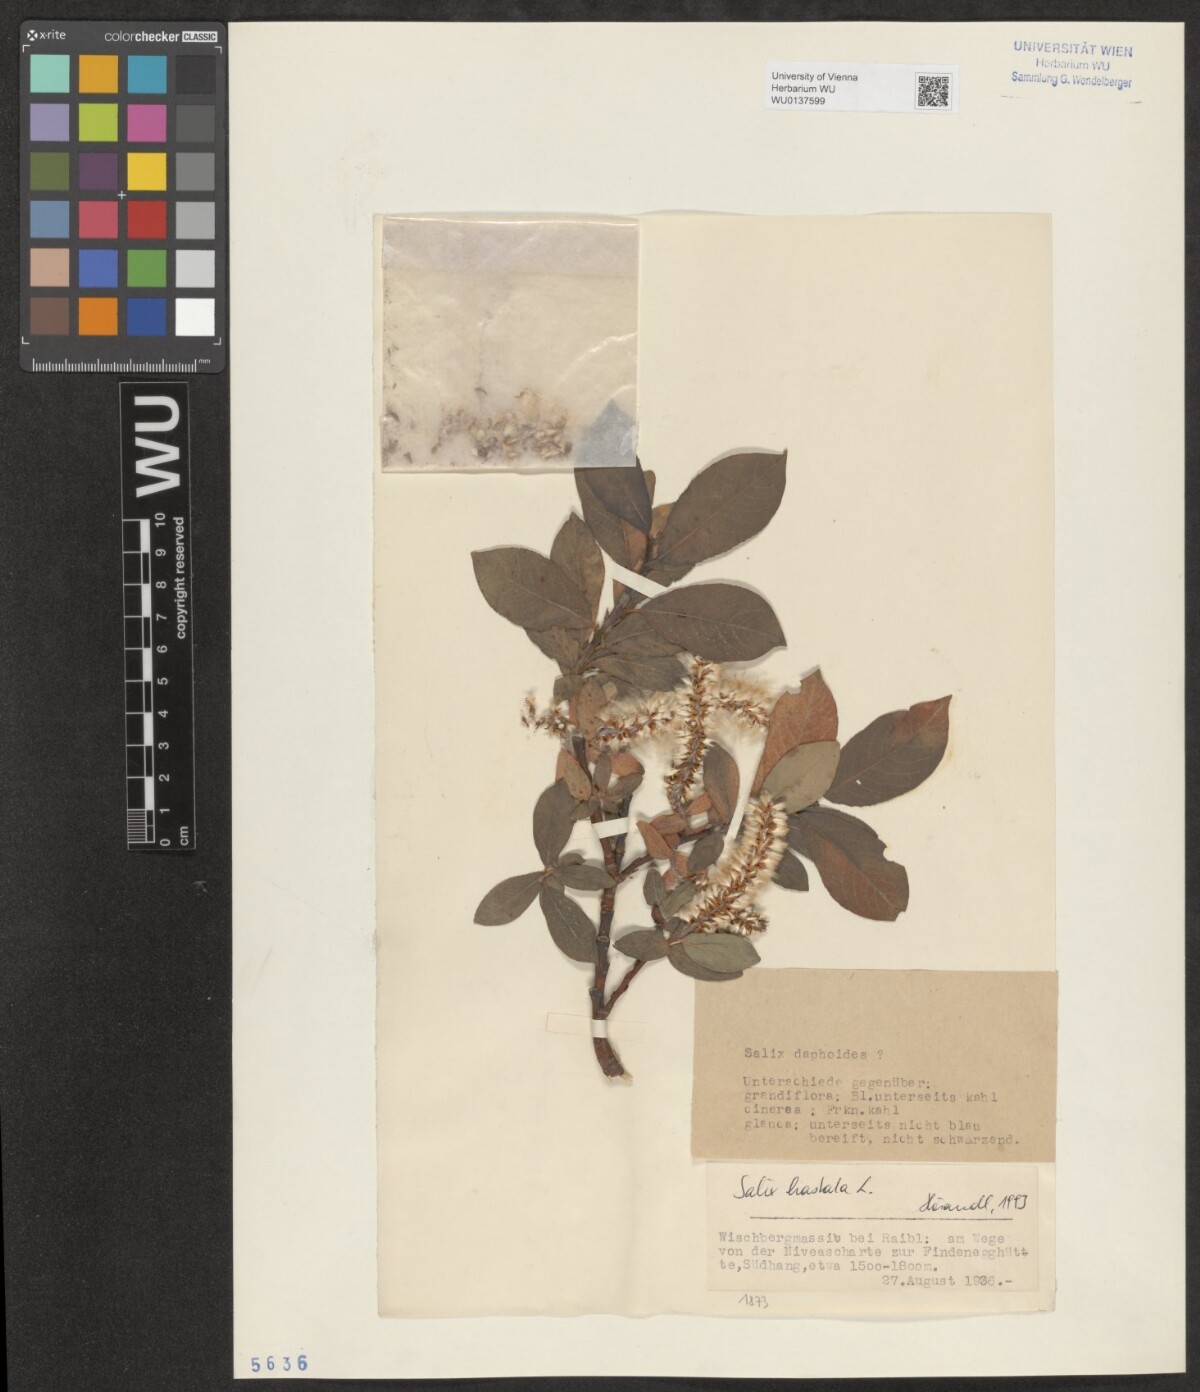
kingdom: Plantae
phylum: Tracheophyta
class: Magnoliopsida
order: Malpighiales
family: Salicaceae
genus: Salix
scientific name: Salix hastata
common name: Halberd willow
